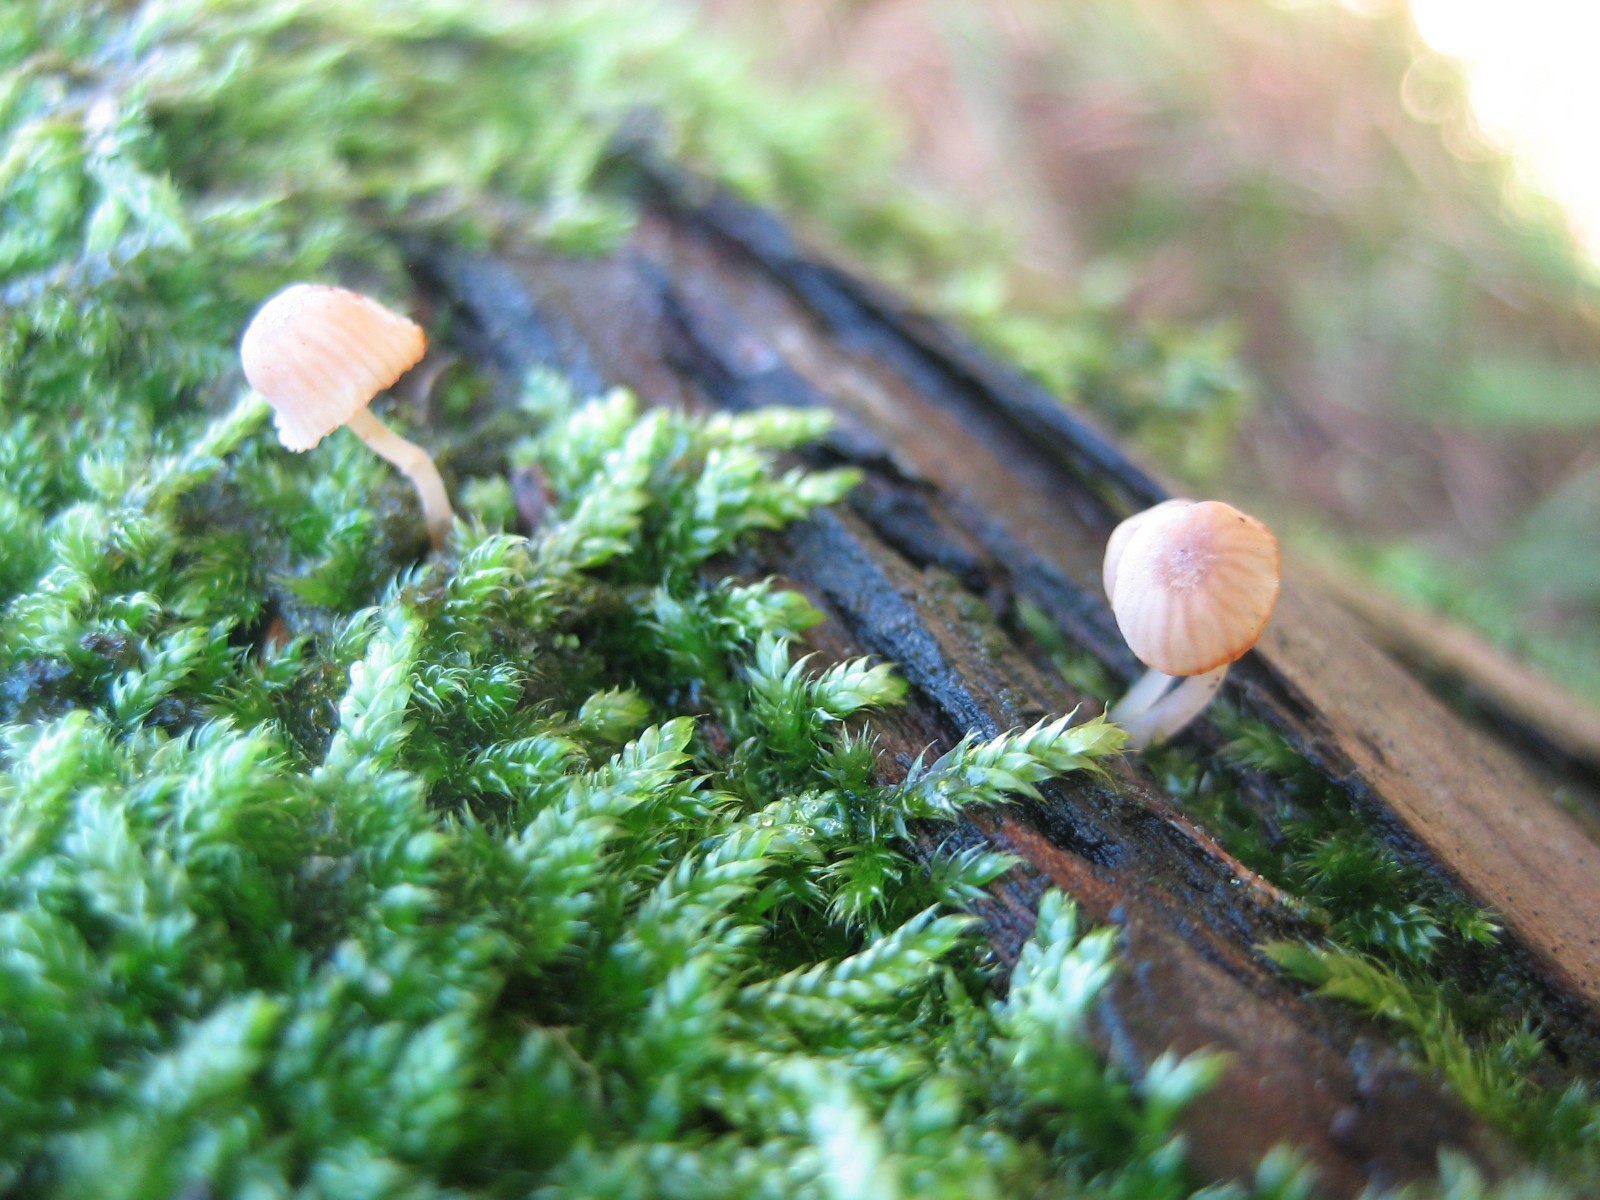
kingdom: Fungi
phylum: Basidiomycota
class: Agaricomycetes
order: Agaricales
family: Mycenaceae
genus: Mycena
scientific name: Mycena juniperina
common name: ene-Huesvamp
